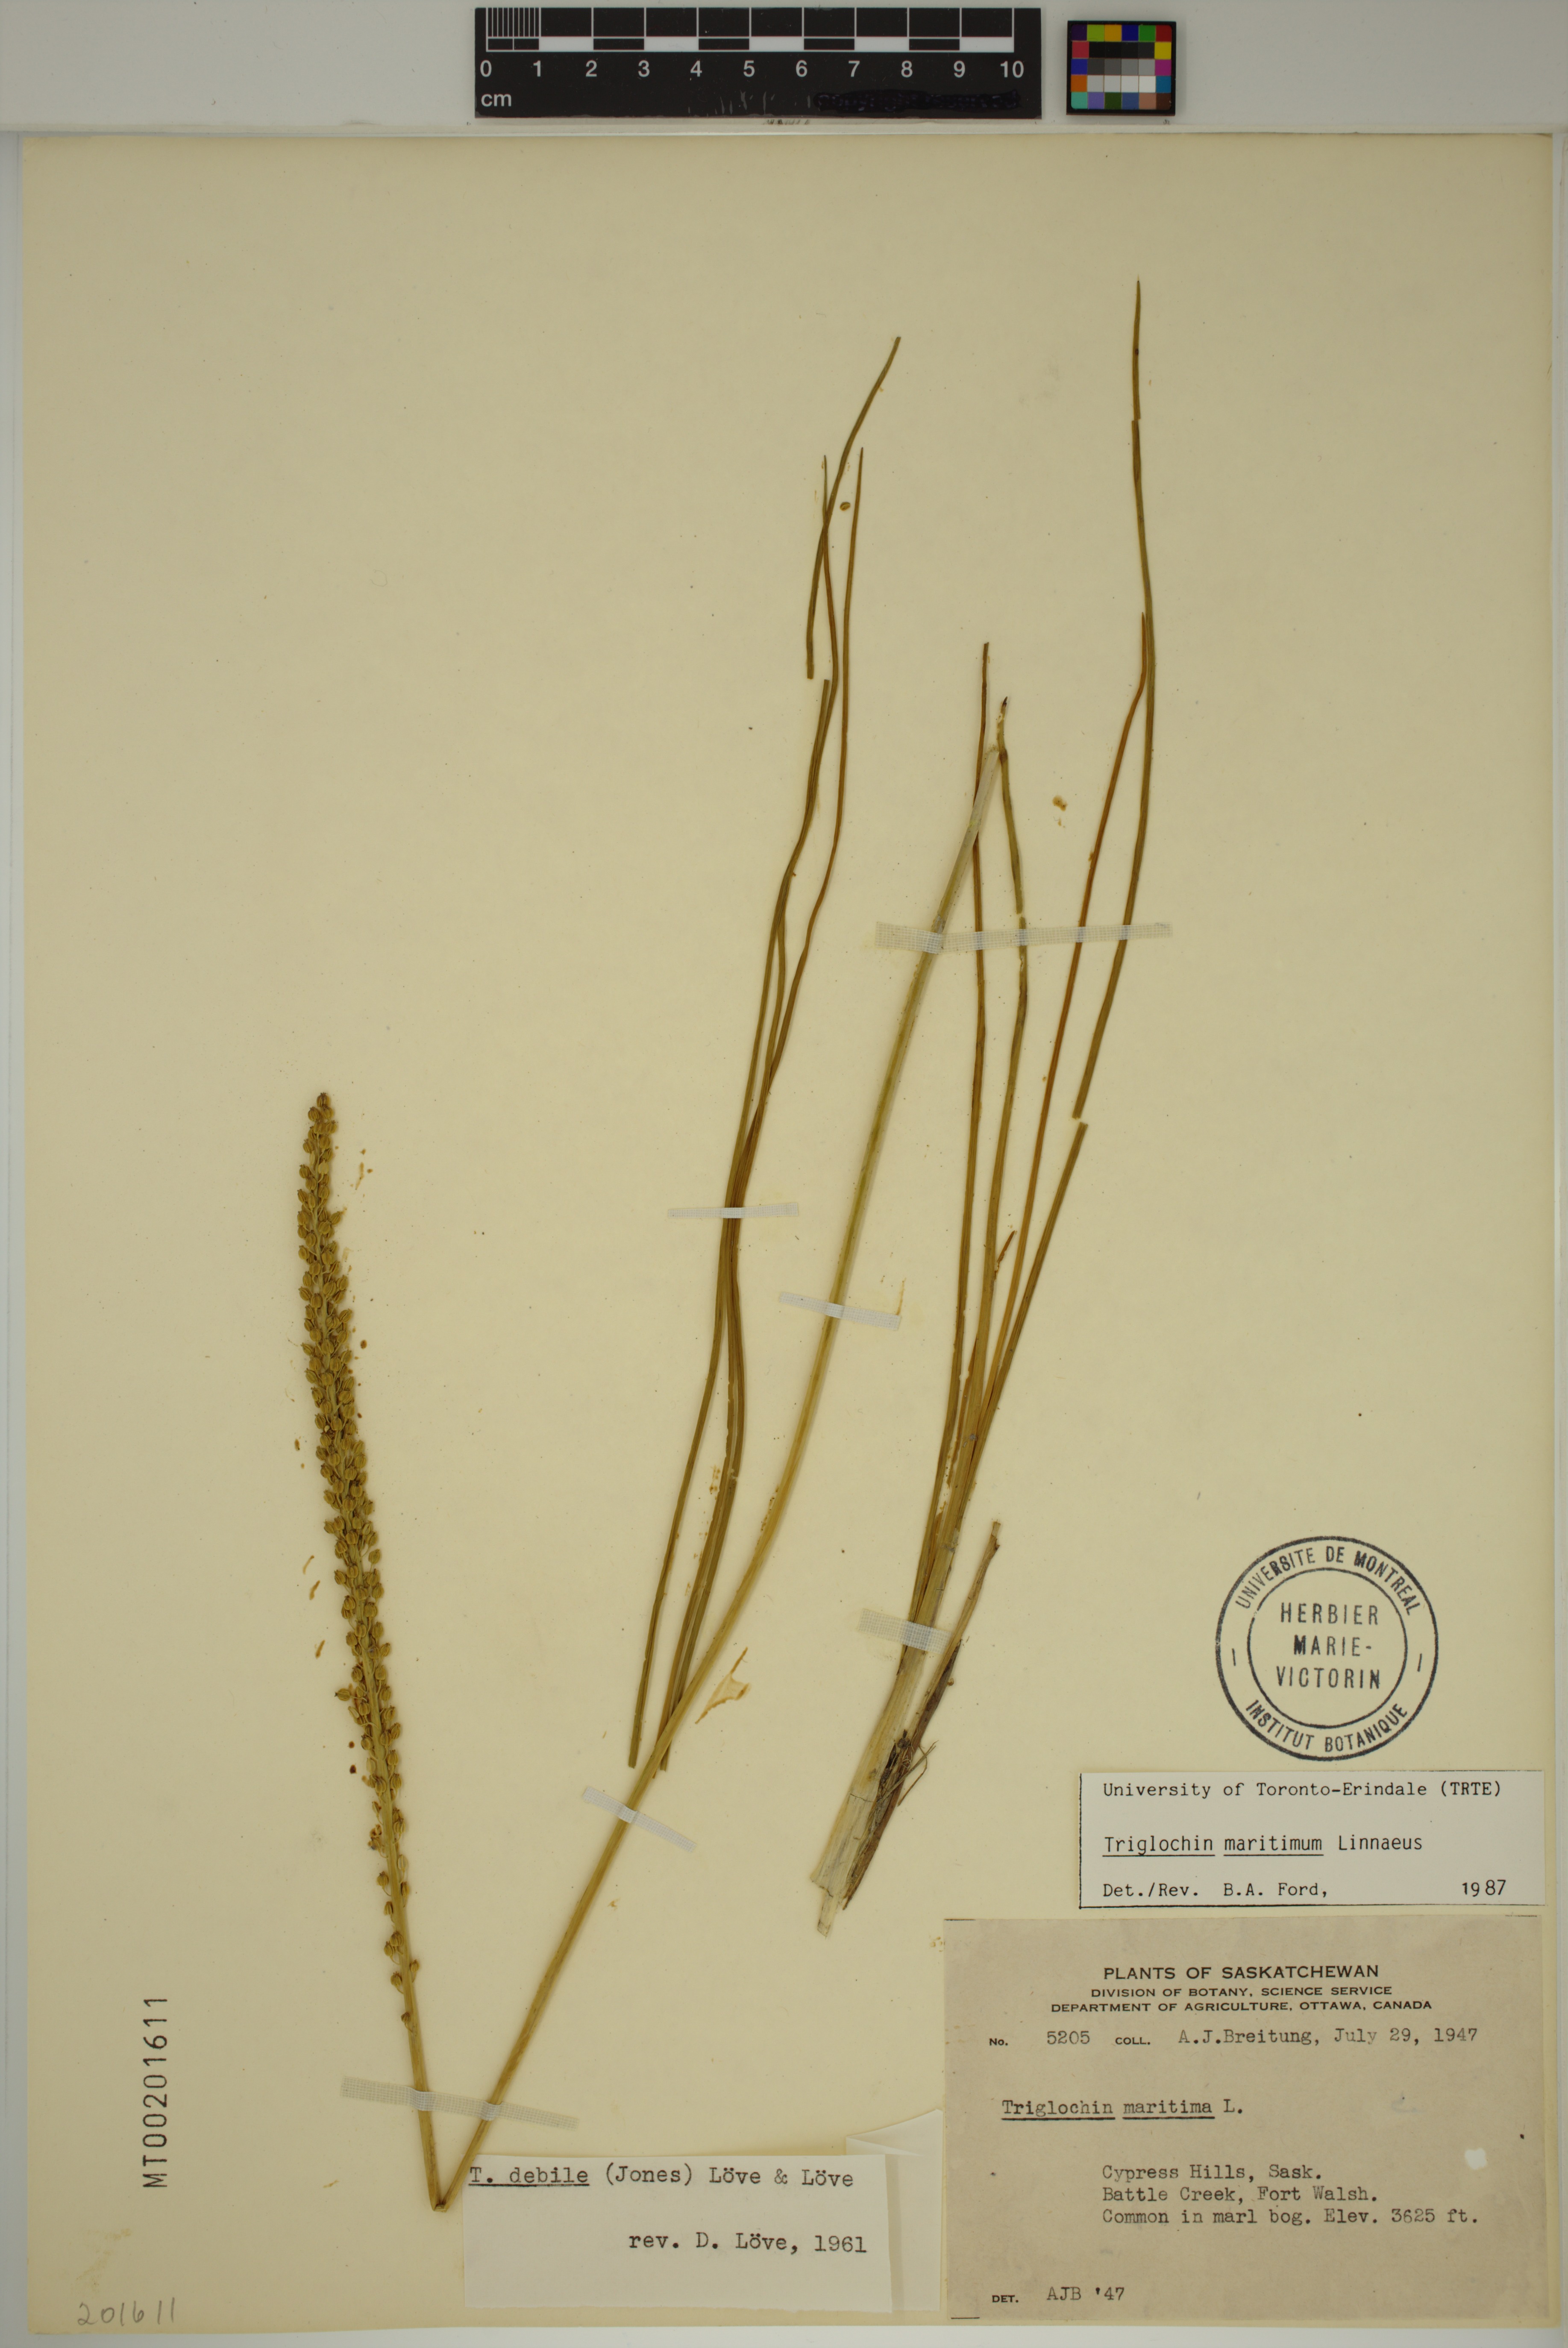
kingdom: Plantae
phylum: Tracheophyta
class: Liliopsida
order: Alismatales
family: Juncaginaceae
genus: Triglochin
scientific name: Triglochin maritima
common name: Sea arrowgrass
